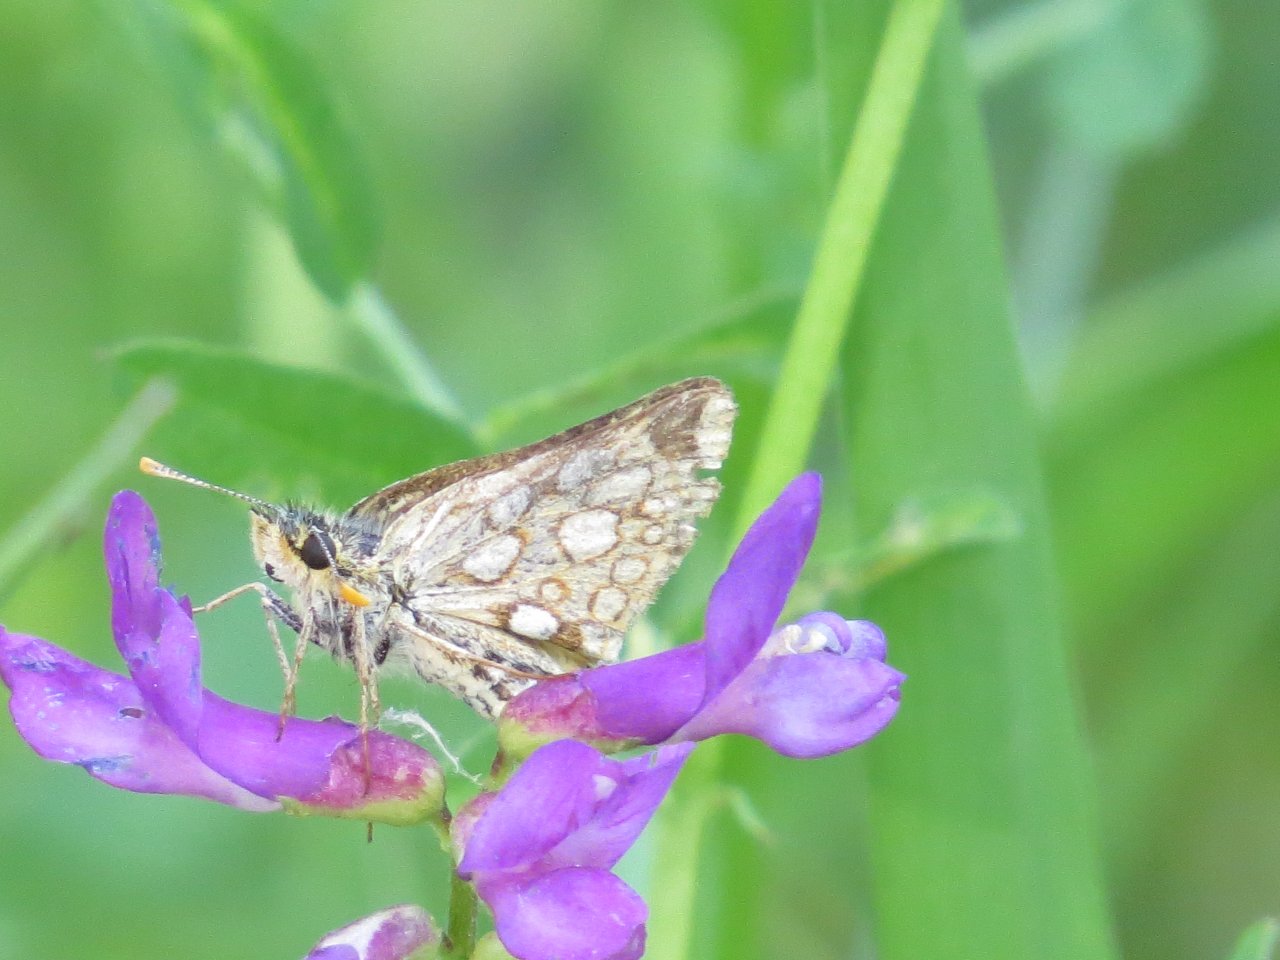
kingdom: Animalia
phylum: Arthropoda
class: Insecta
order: Lepidoptera
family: Hesperiidae
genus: Carterocephalus
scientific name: Carterocephalus palaemon
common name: Chequered Skipper
